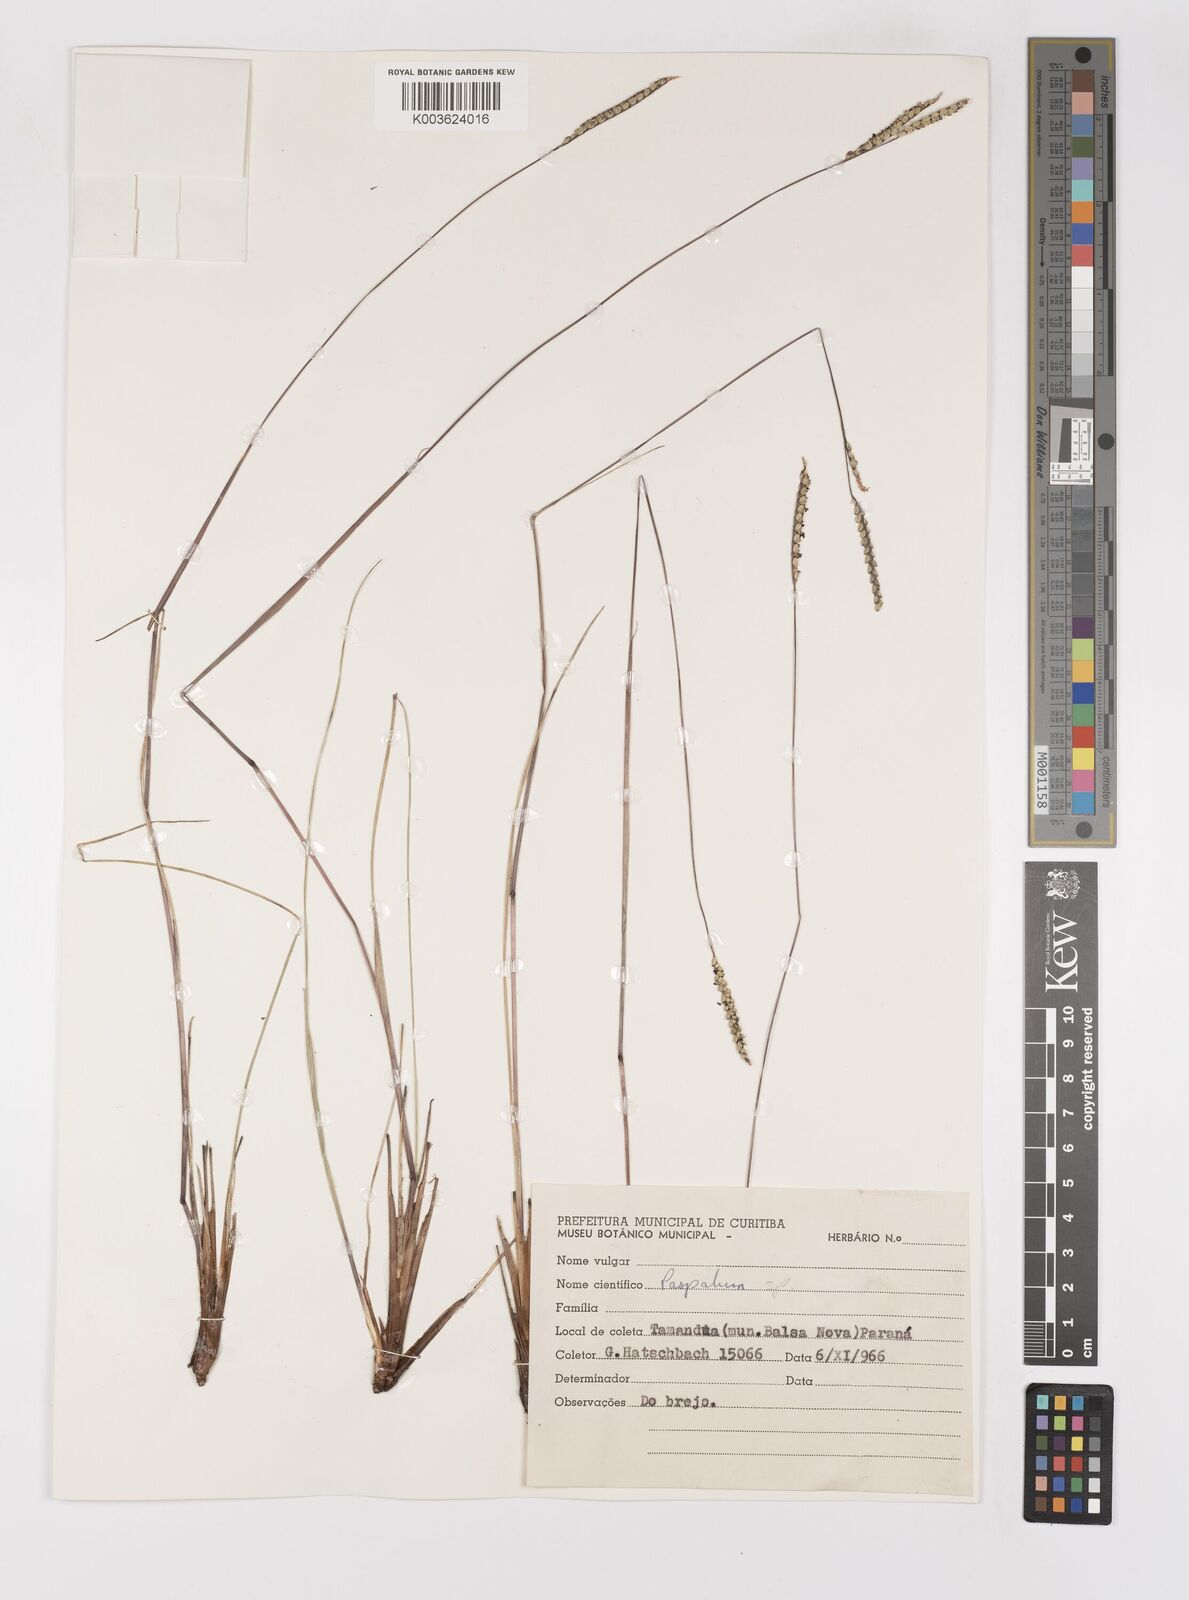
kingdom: Plantae
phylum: Tracheophyta
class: Liliopsida
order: Poales
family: Poaceae
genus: Paspalum
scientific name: Paspalum flaccidum
